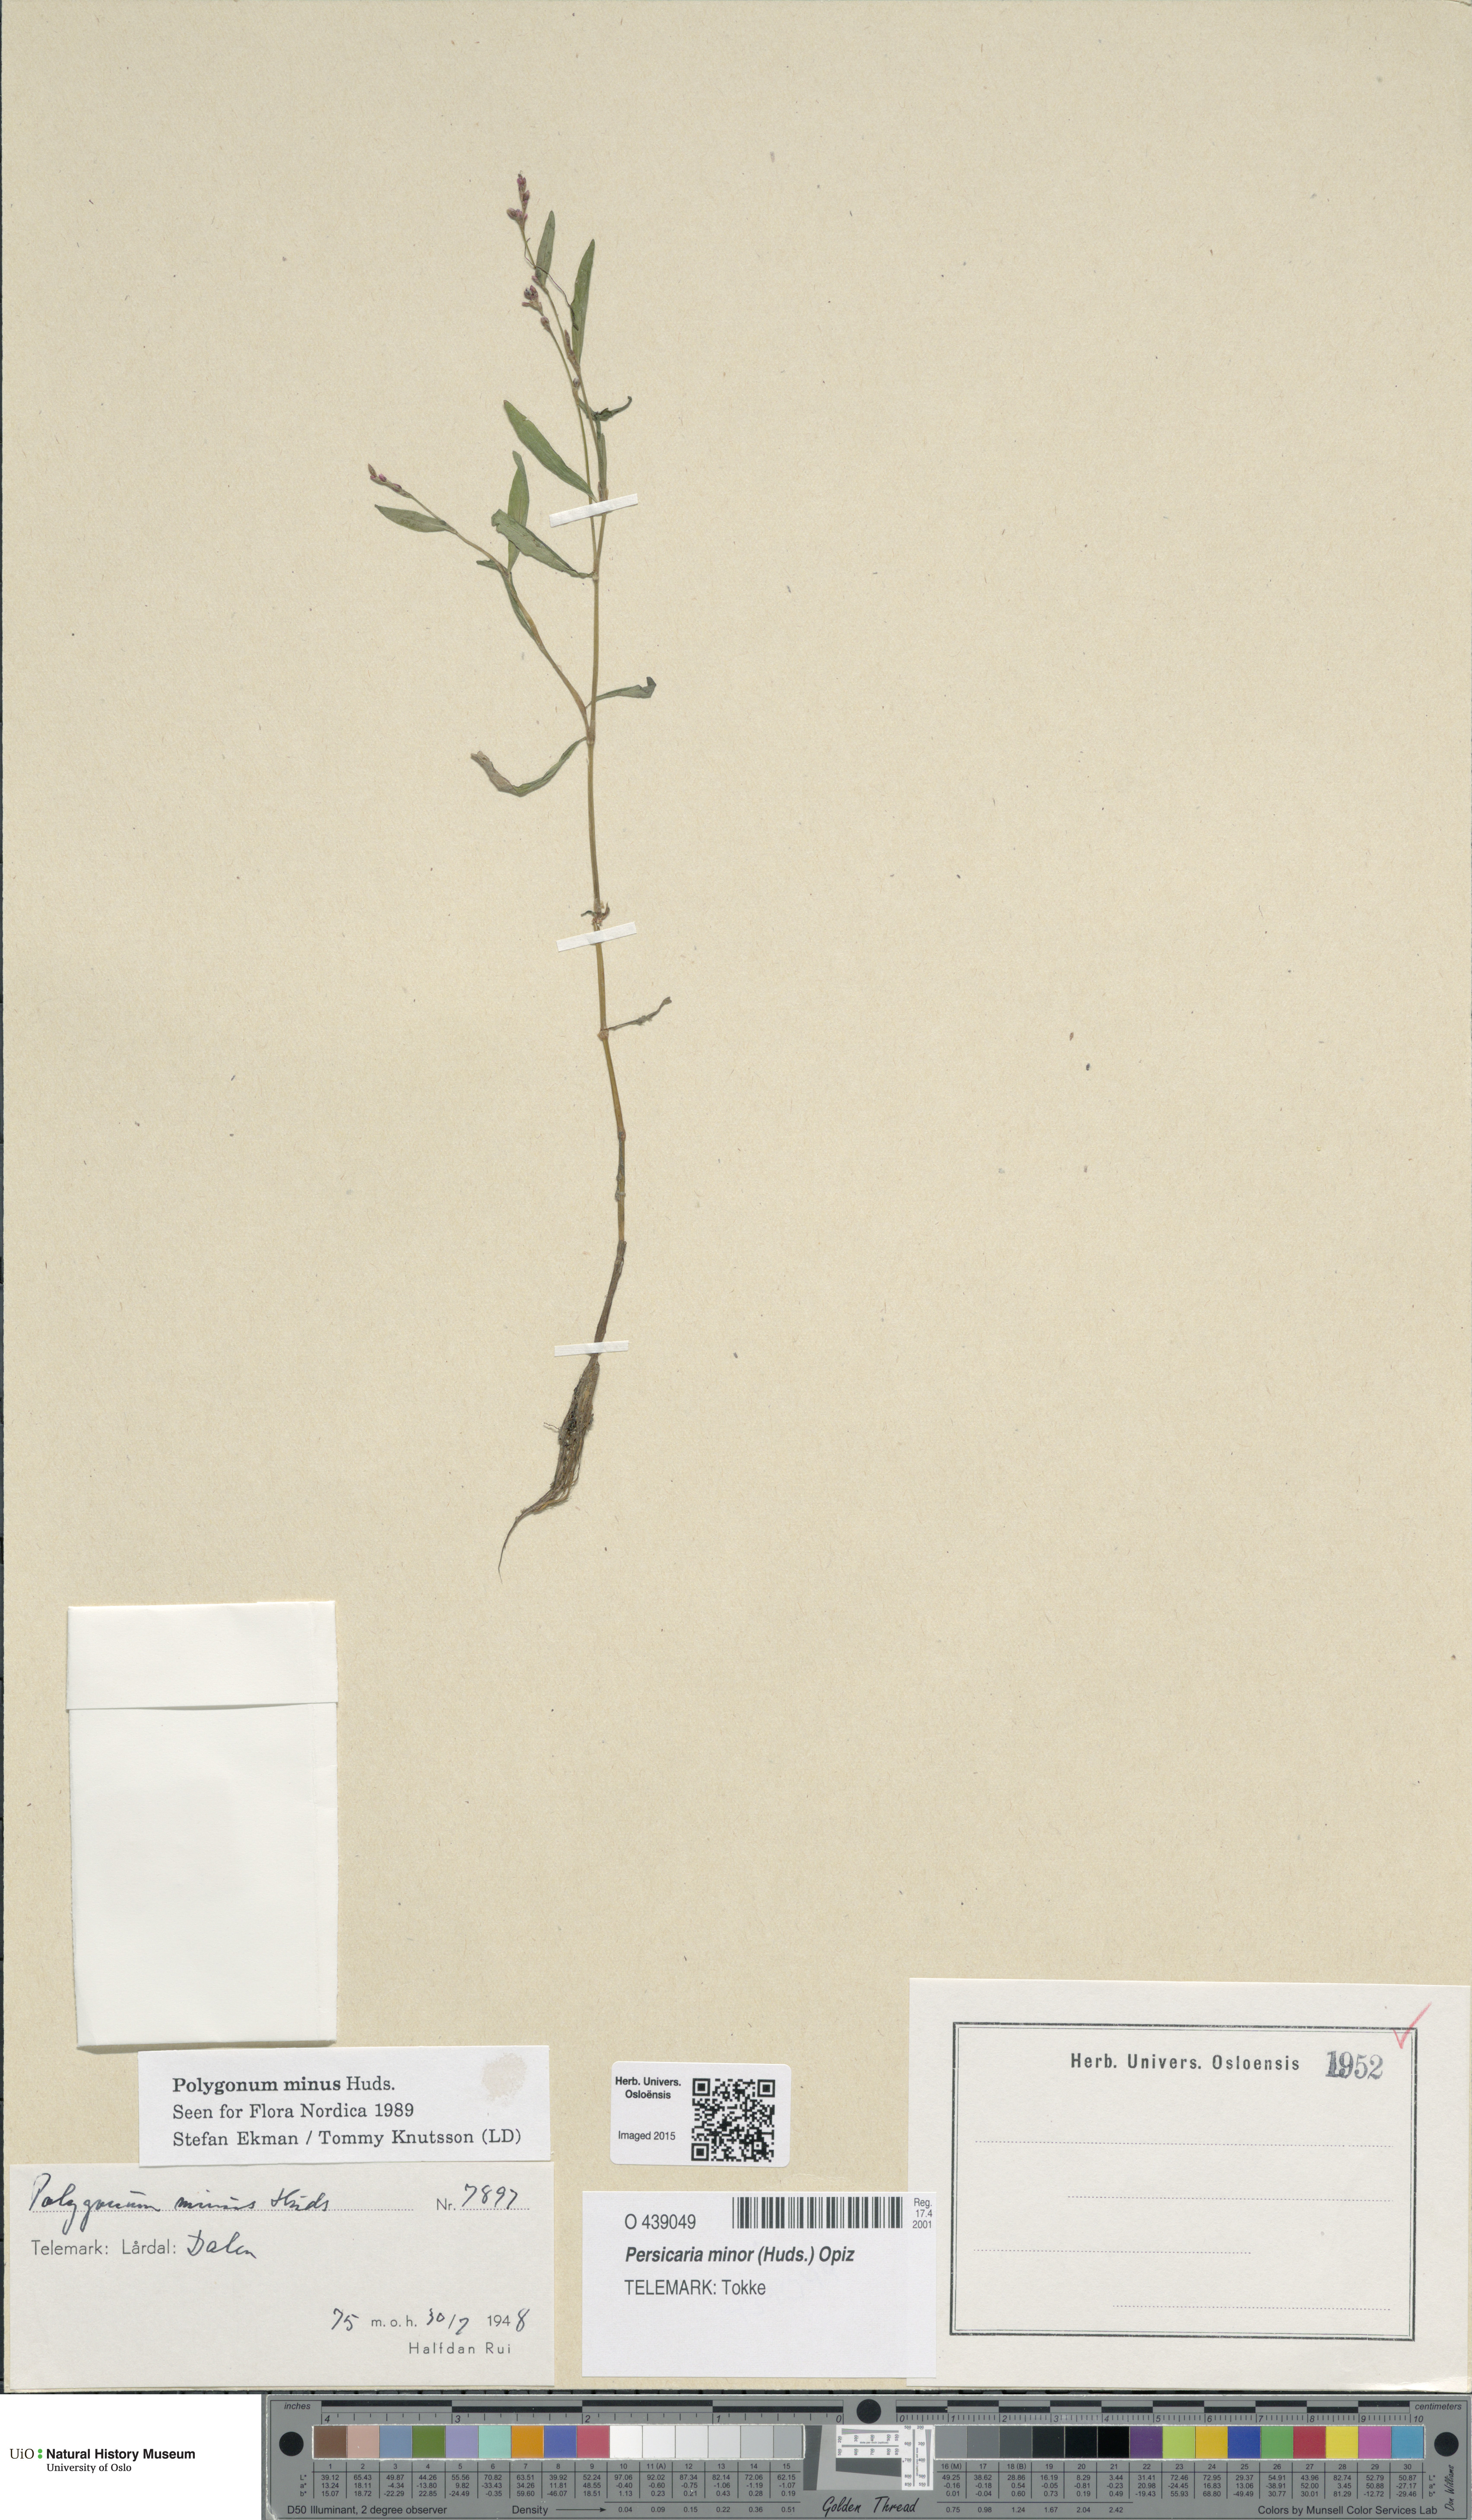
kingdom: Plantae
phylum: Tracheophyta
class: Magnoliopsida
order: Caryophyllales
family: Polygonaceae
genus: Persicaria
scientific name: Persicaria minor
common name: Small water-pepper
